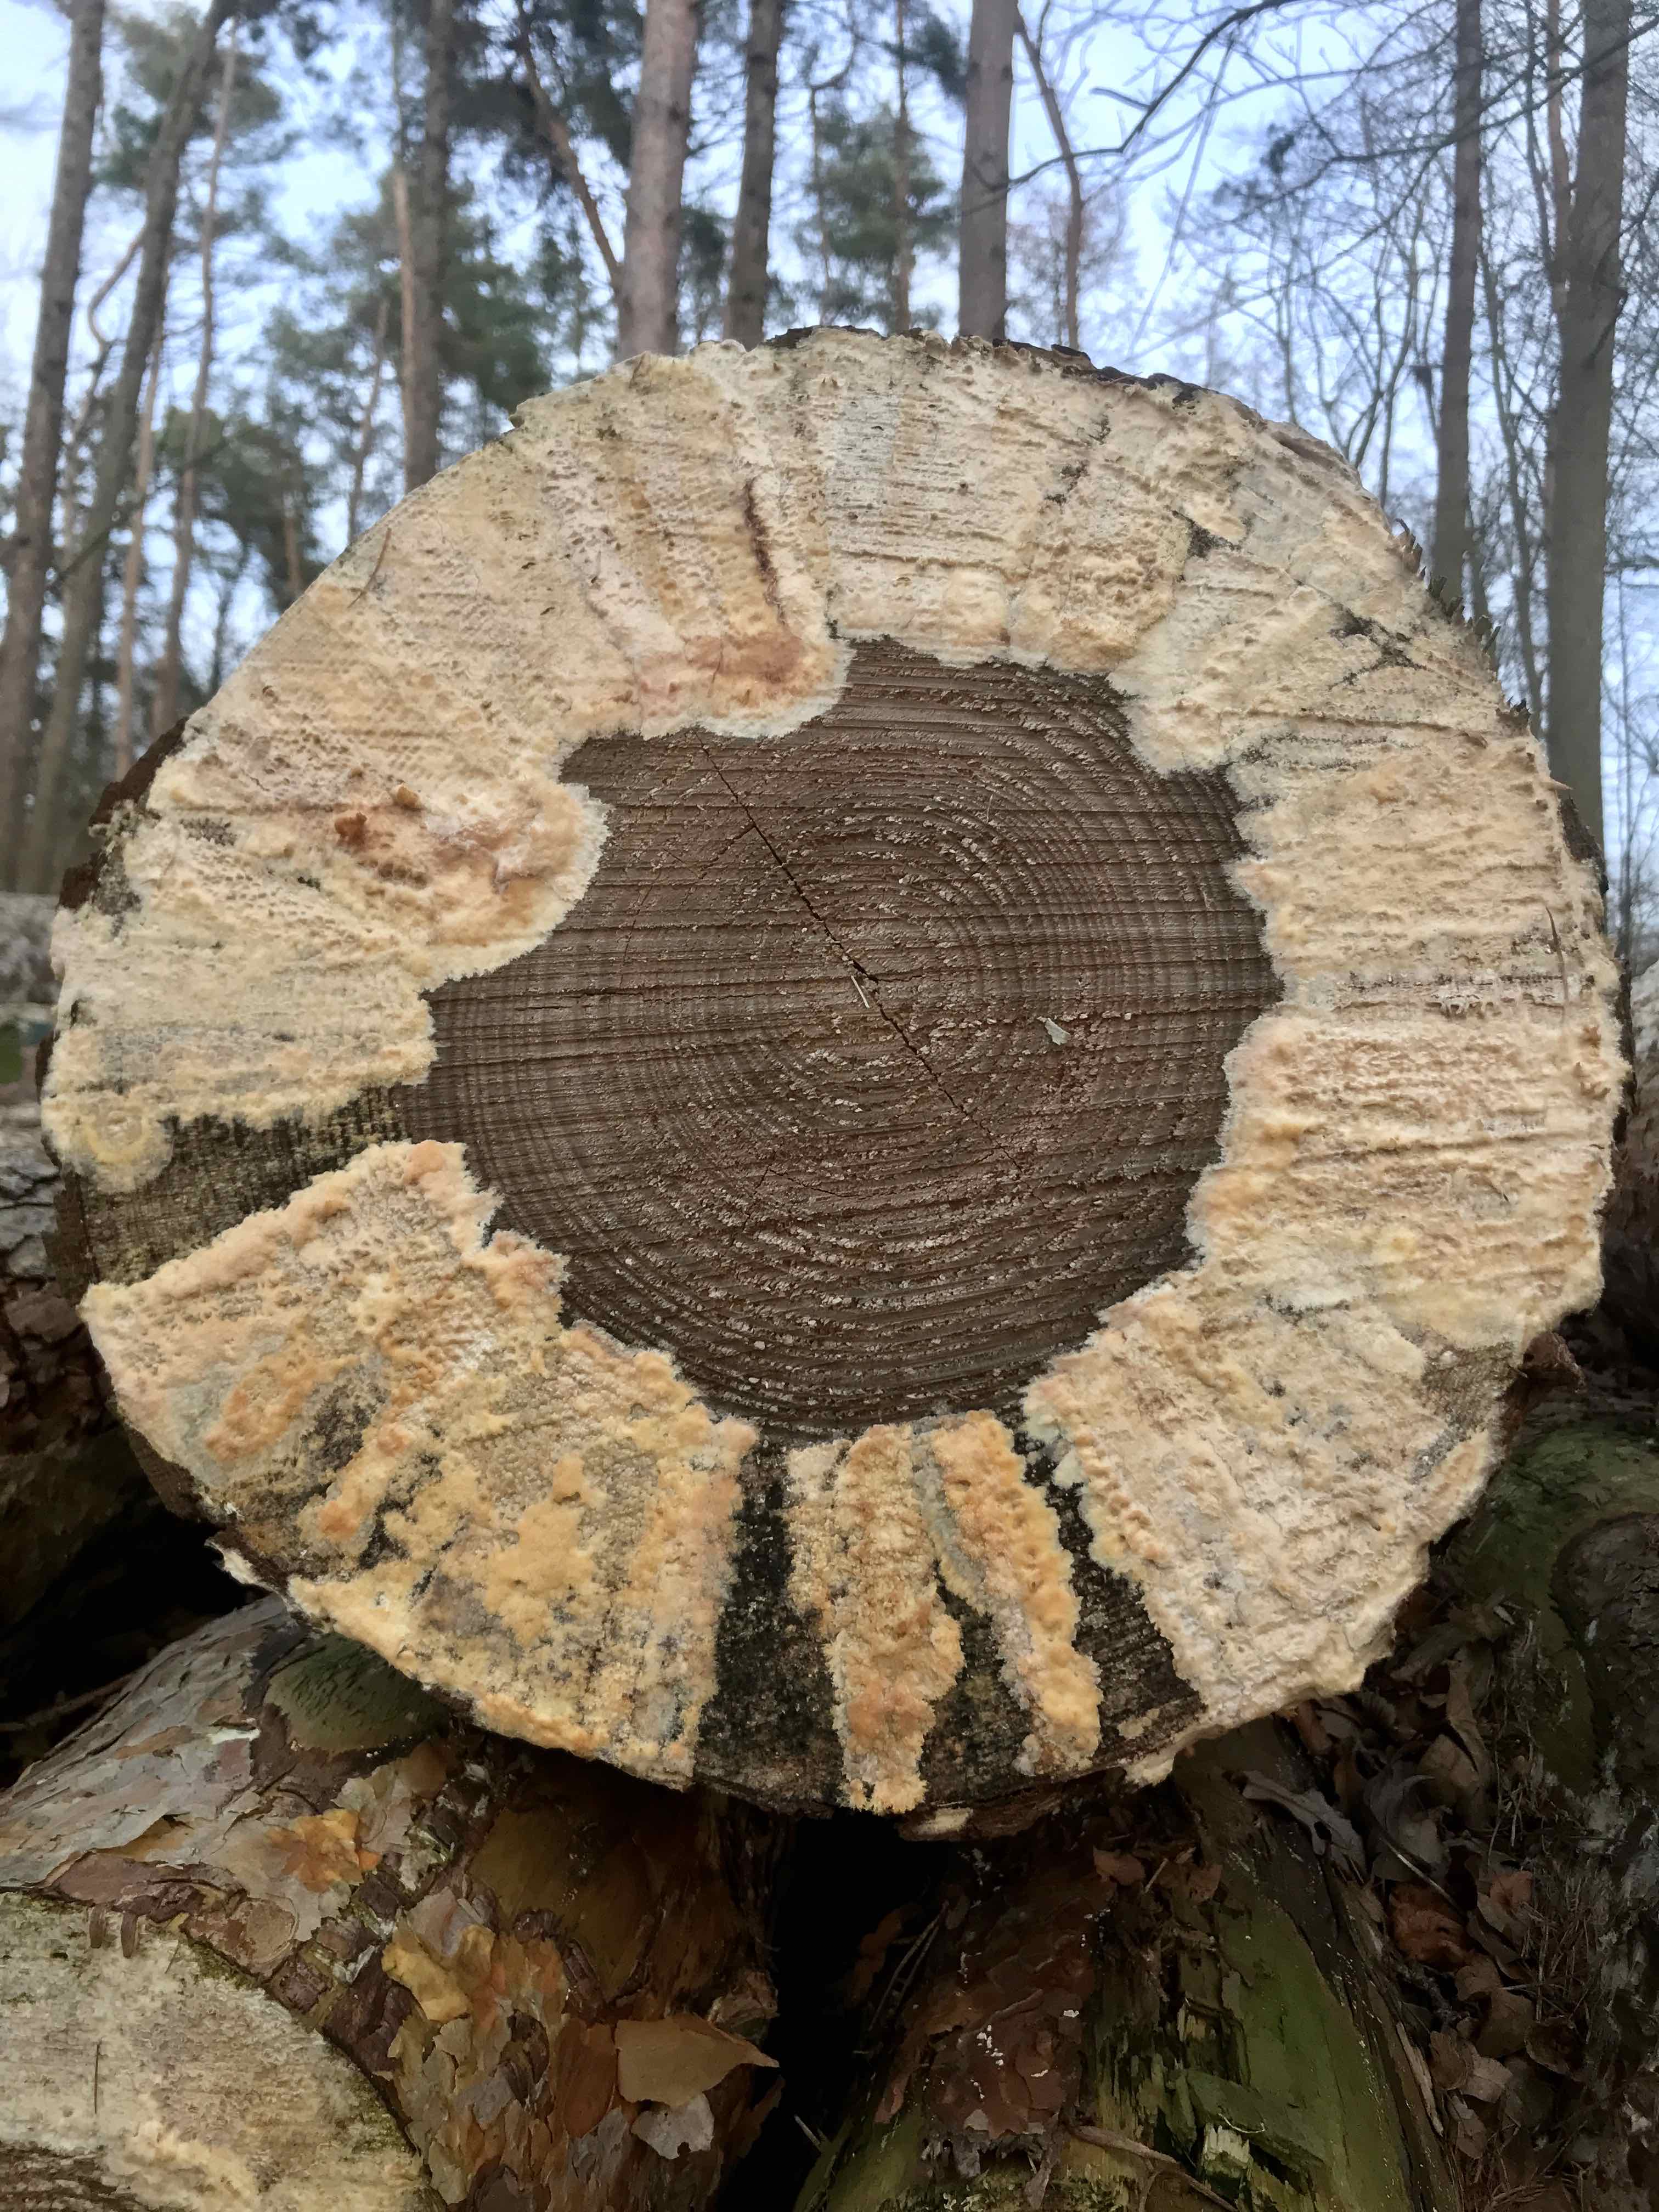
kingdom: Fungi
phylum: Basidiomycota
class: Agaricomycetes
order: Corticiales
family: Corticiaceae
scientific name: Corticiaceae
